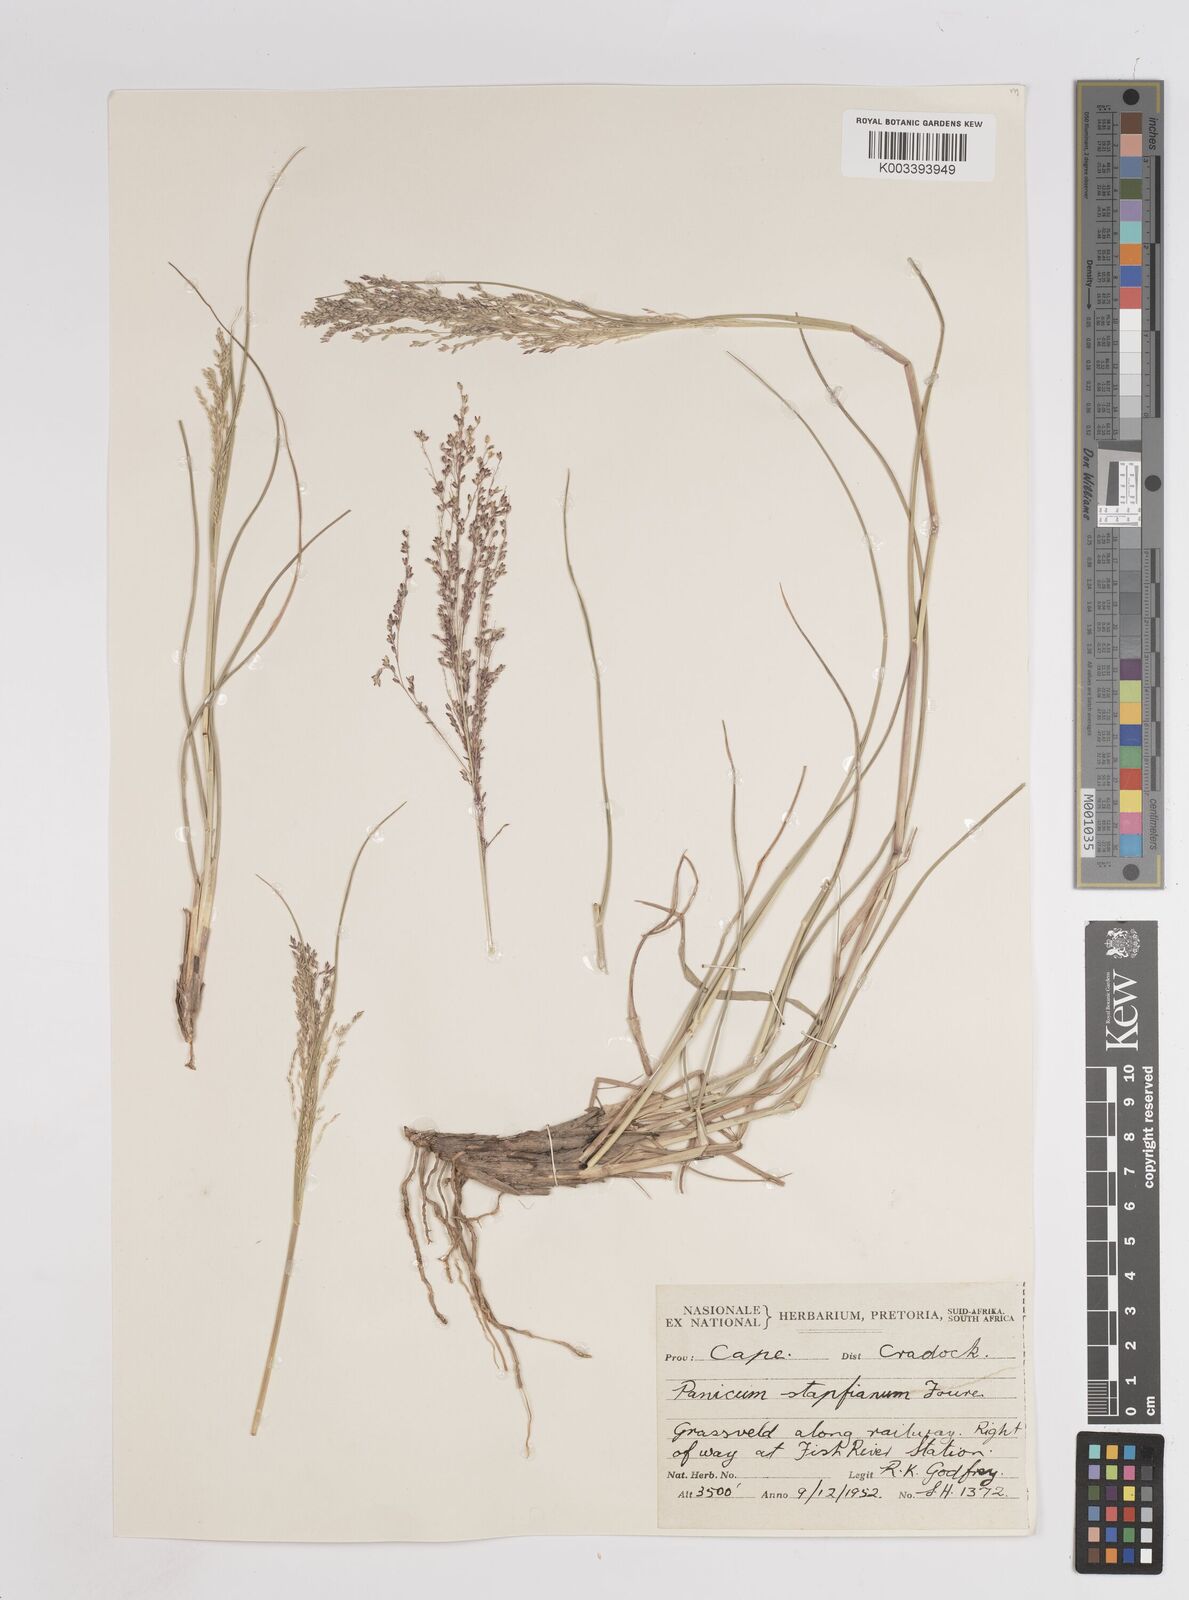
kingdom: Plantae
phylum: Tracheophyta
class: Liliopsida
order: Poales
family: Poaceae
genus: Panicum
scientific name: Panicum coloratum
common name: Kleingrass
